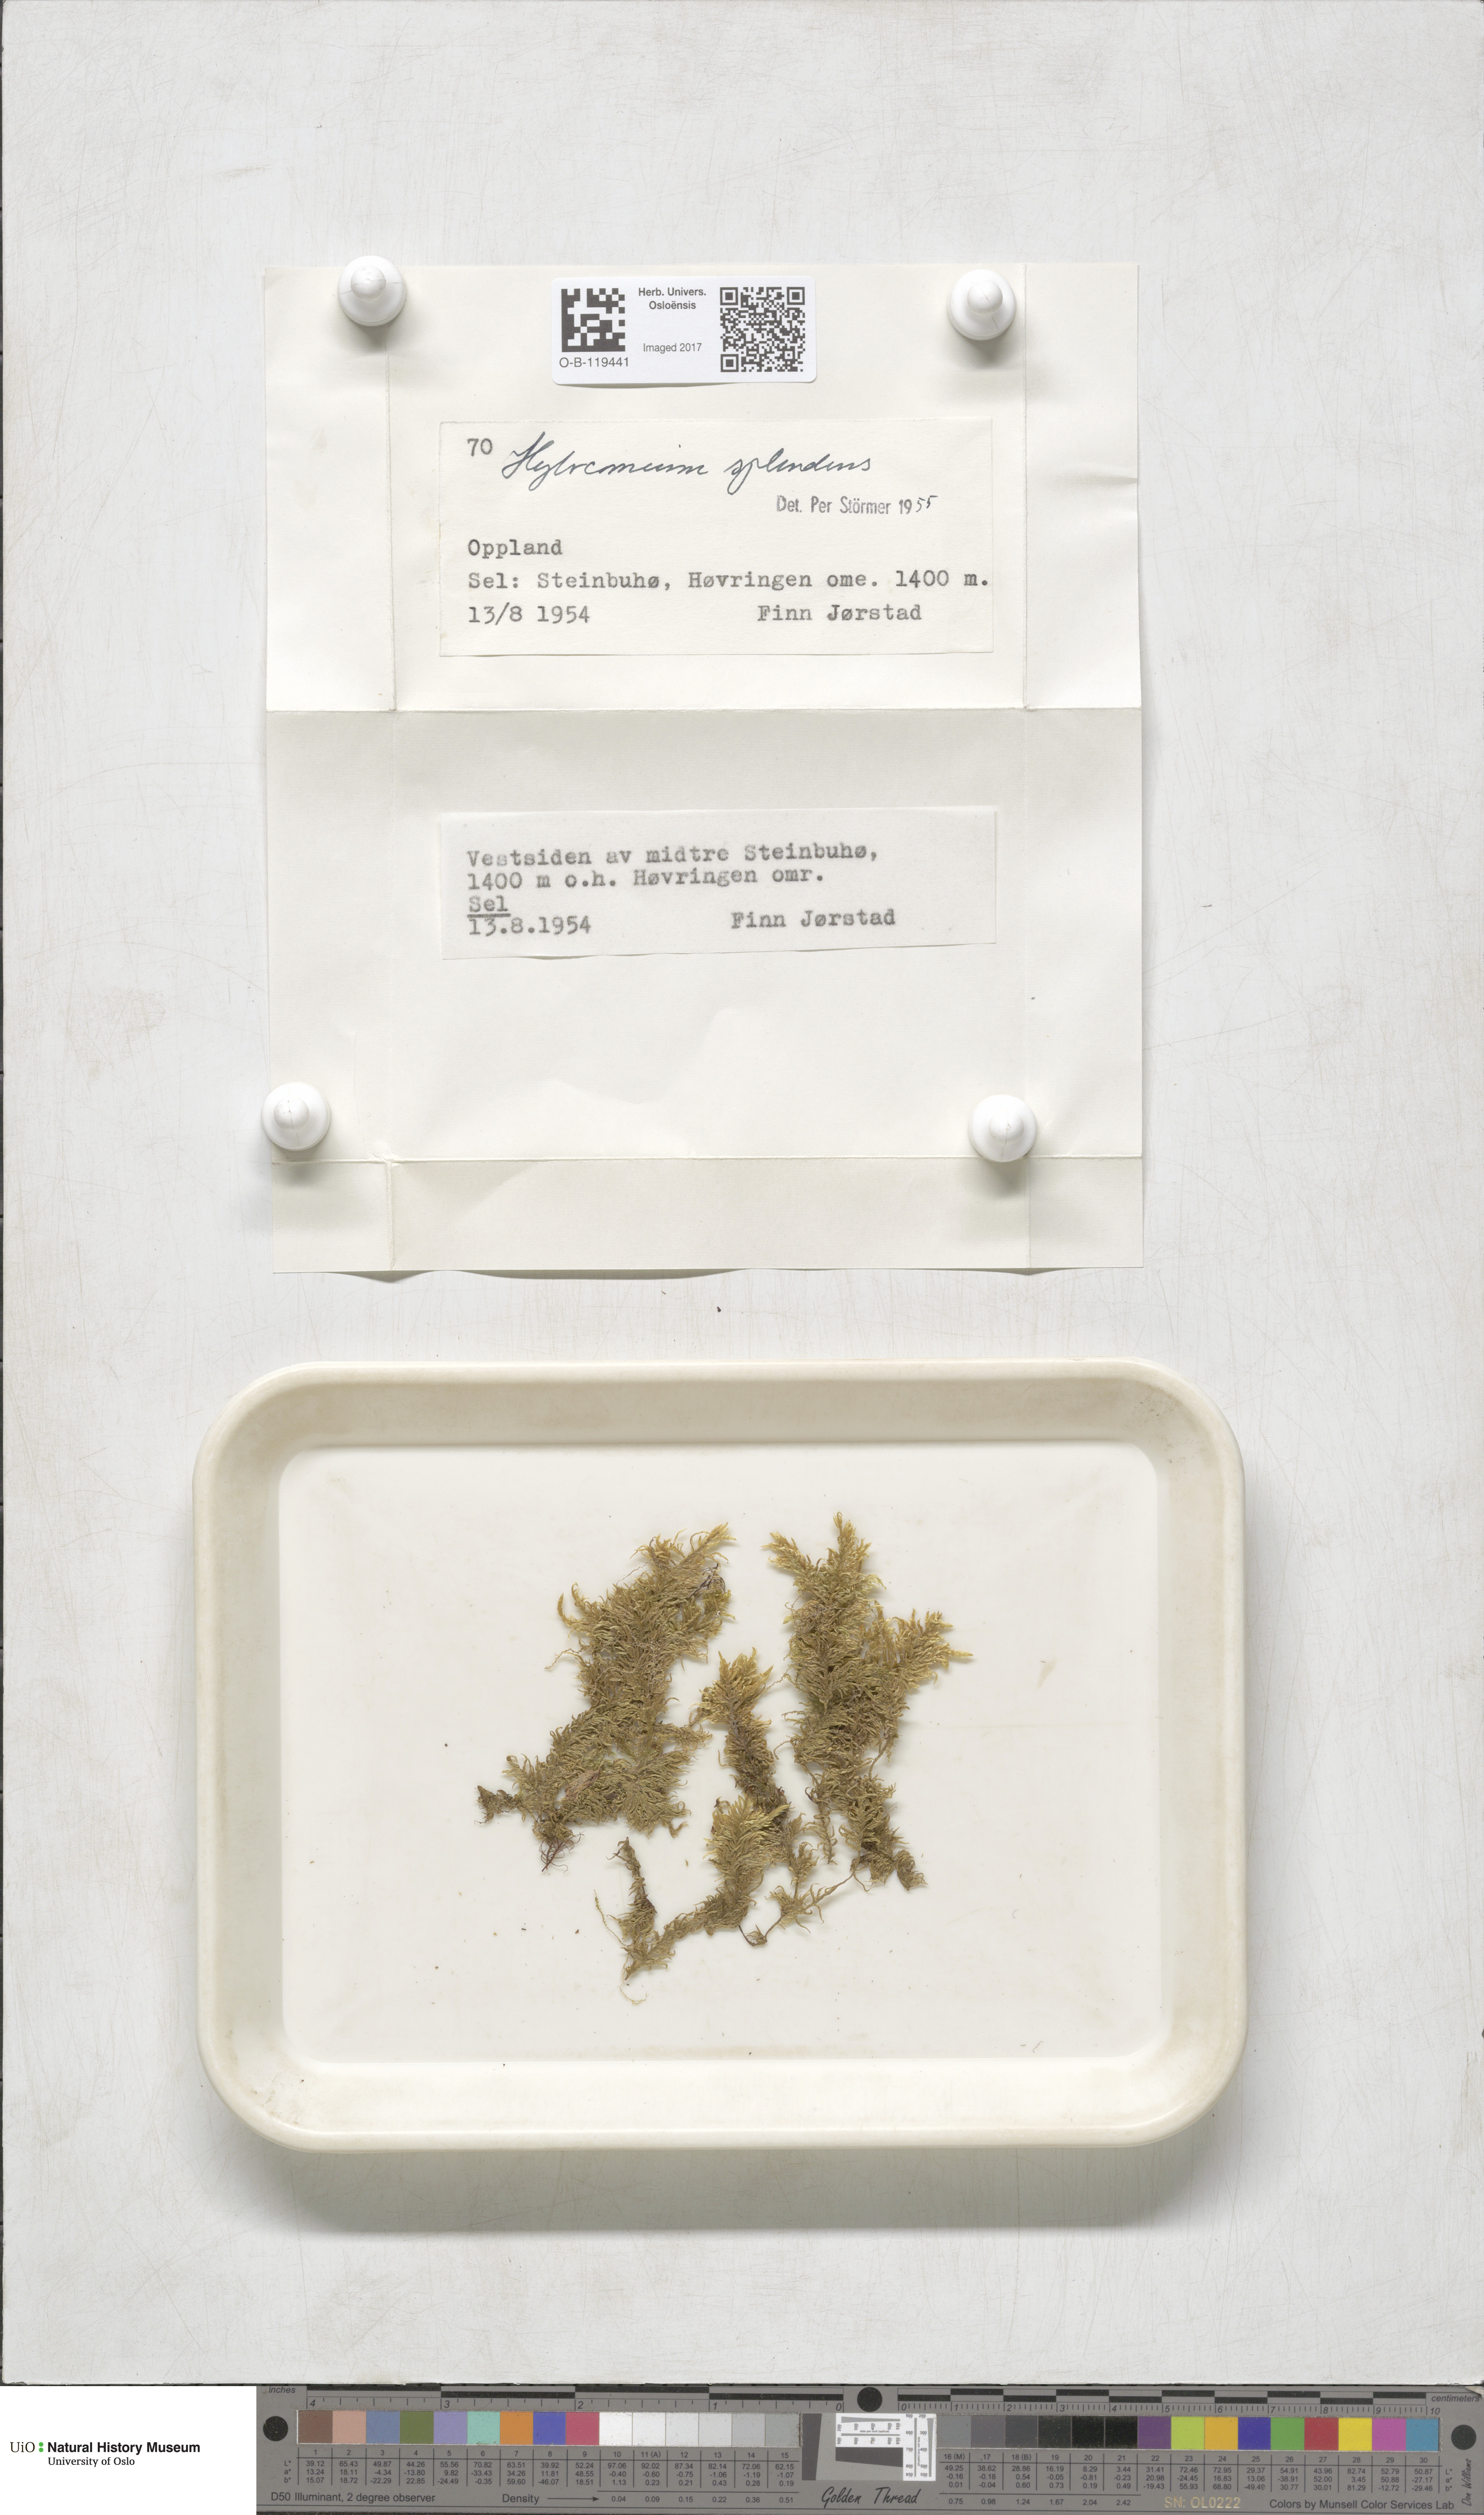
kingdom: Plantae
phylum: Bryophyta
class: Bryopsida
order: Hypnales
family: Hylocomiaceae
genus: Hylocomium
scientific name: Hylocomium splendens
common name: Stairstep moss
